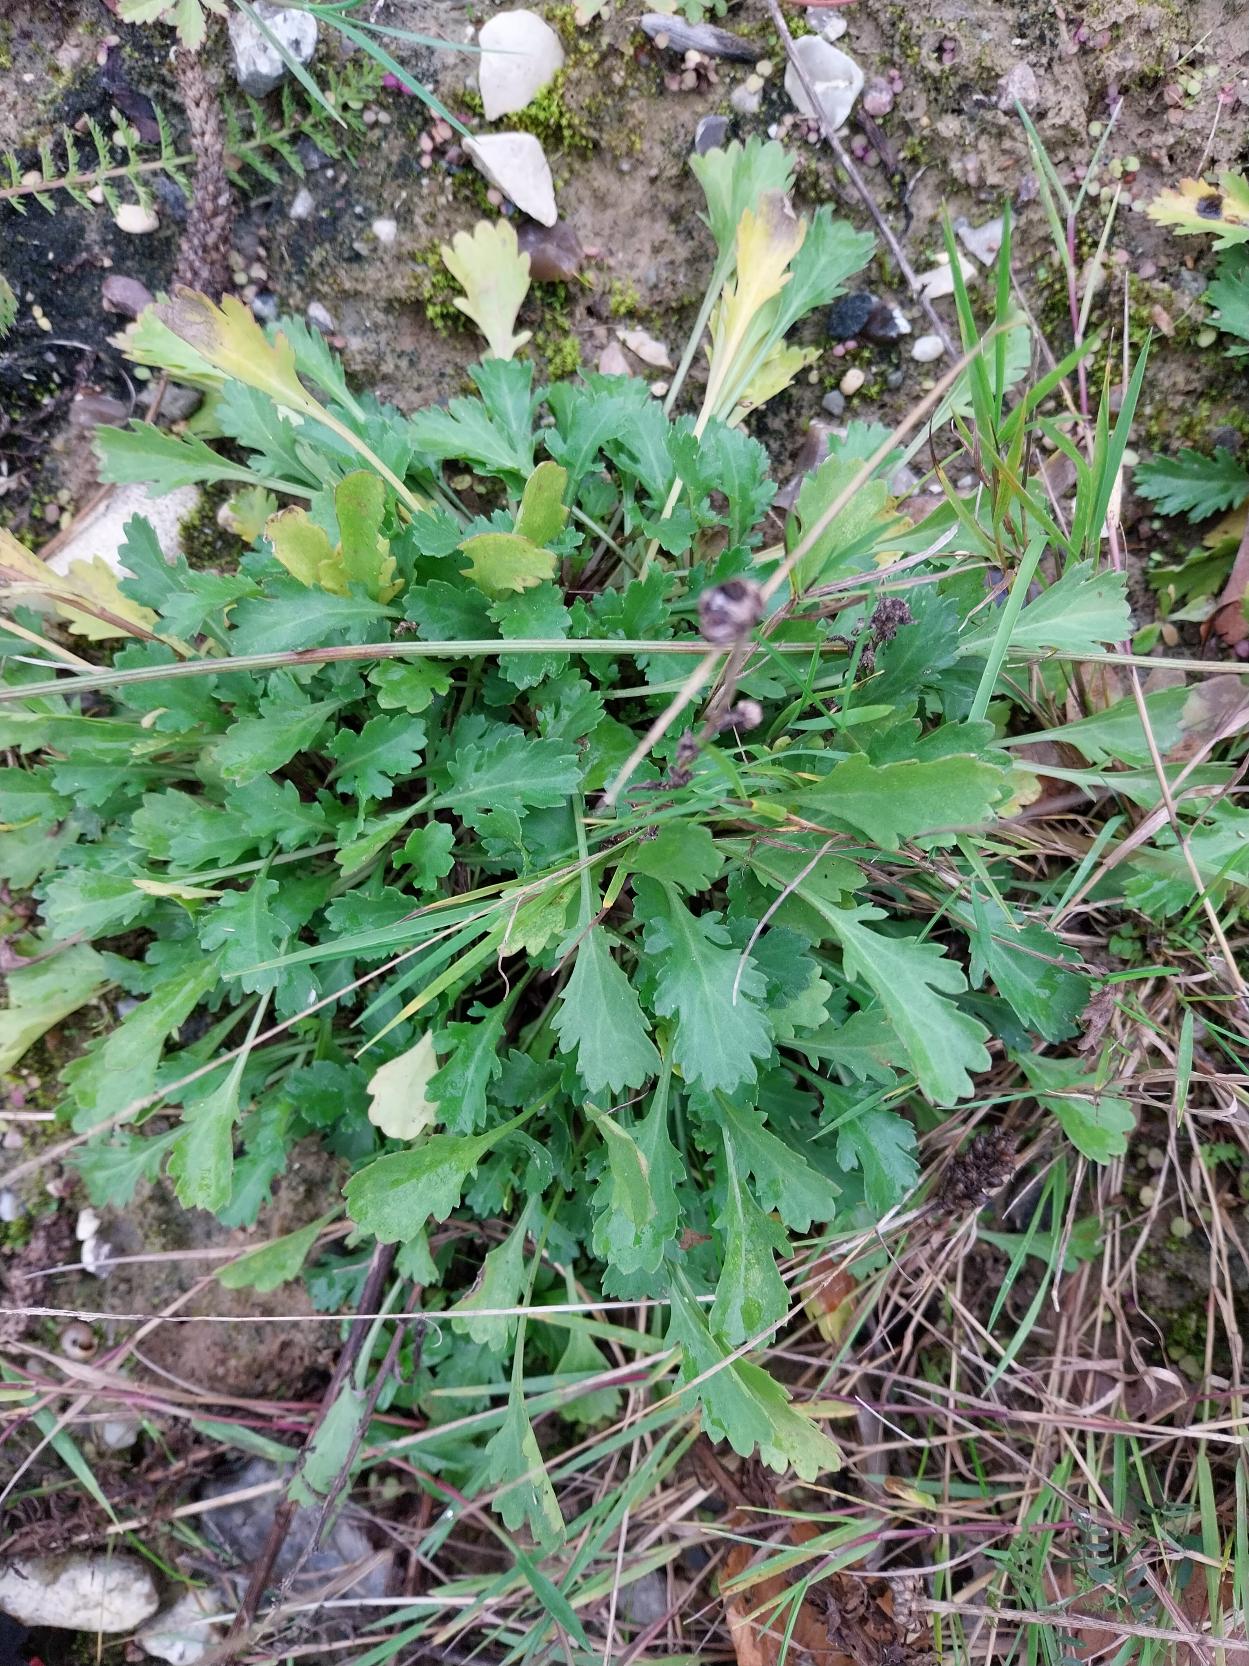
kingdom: Plantae
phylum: Tracheophyta
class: Magnoliopsida
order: Asterales
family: Asteraceae
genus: Leucanthemum
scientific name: Leucanthemum vulgare
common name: Hvid okseøje
